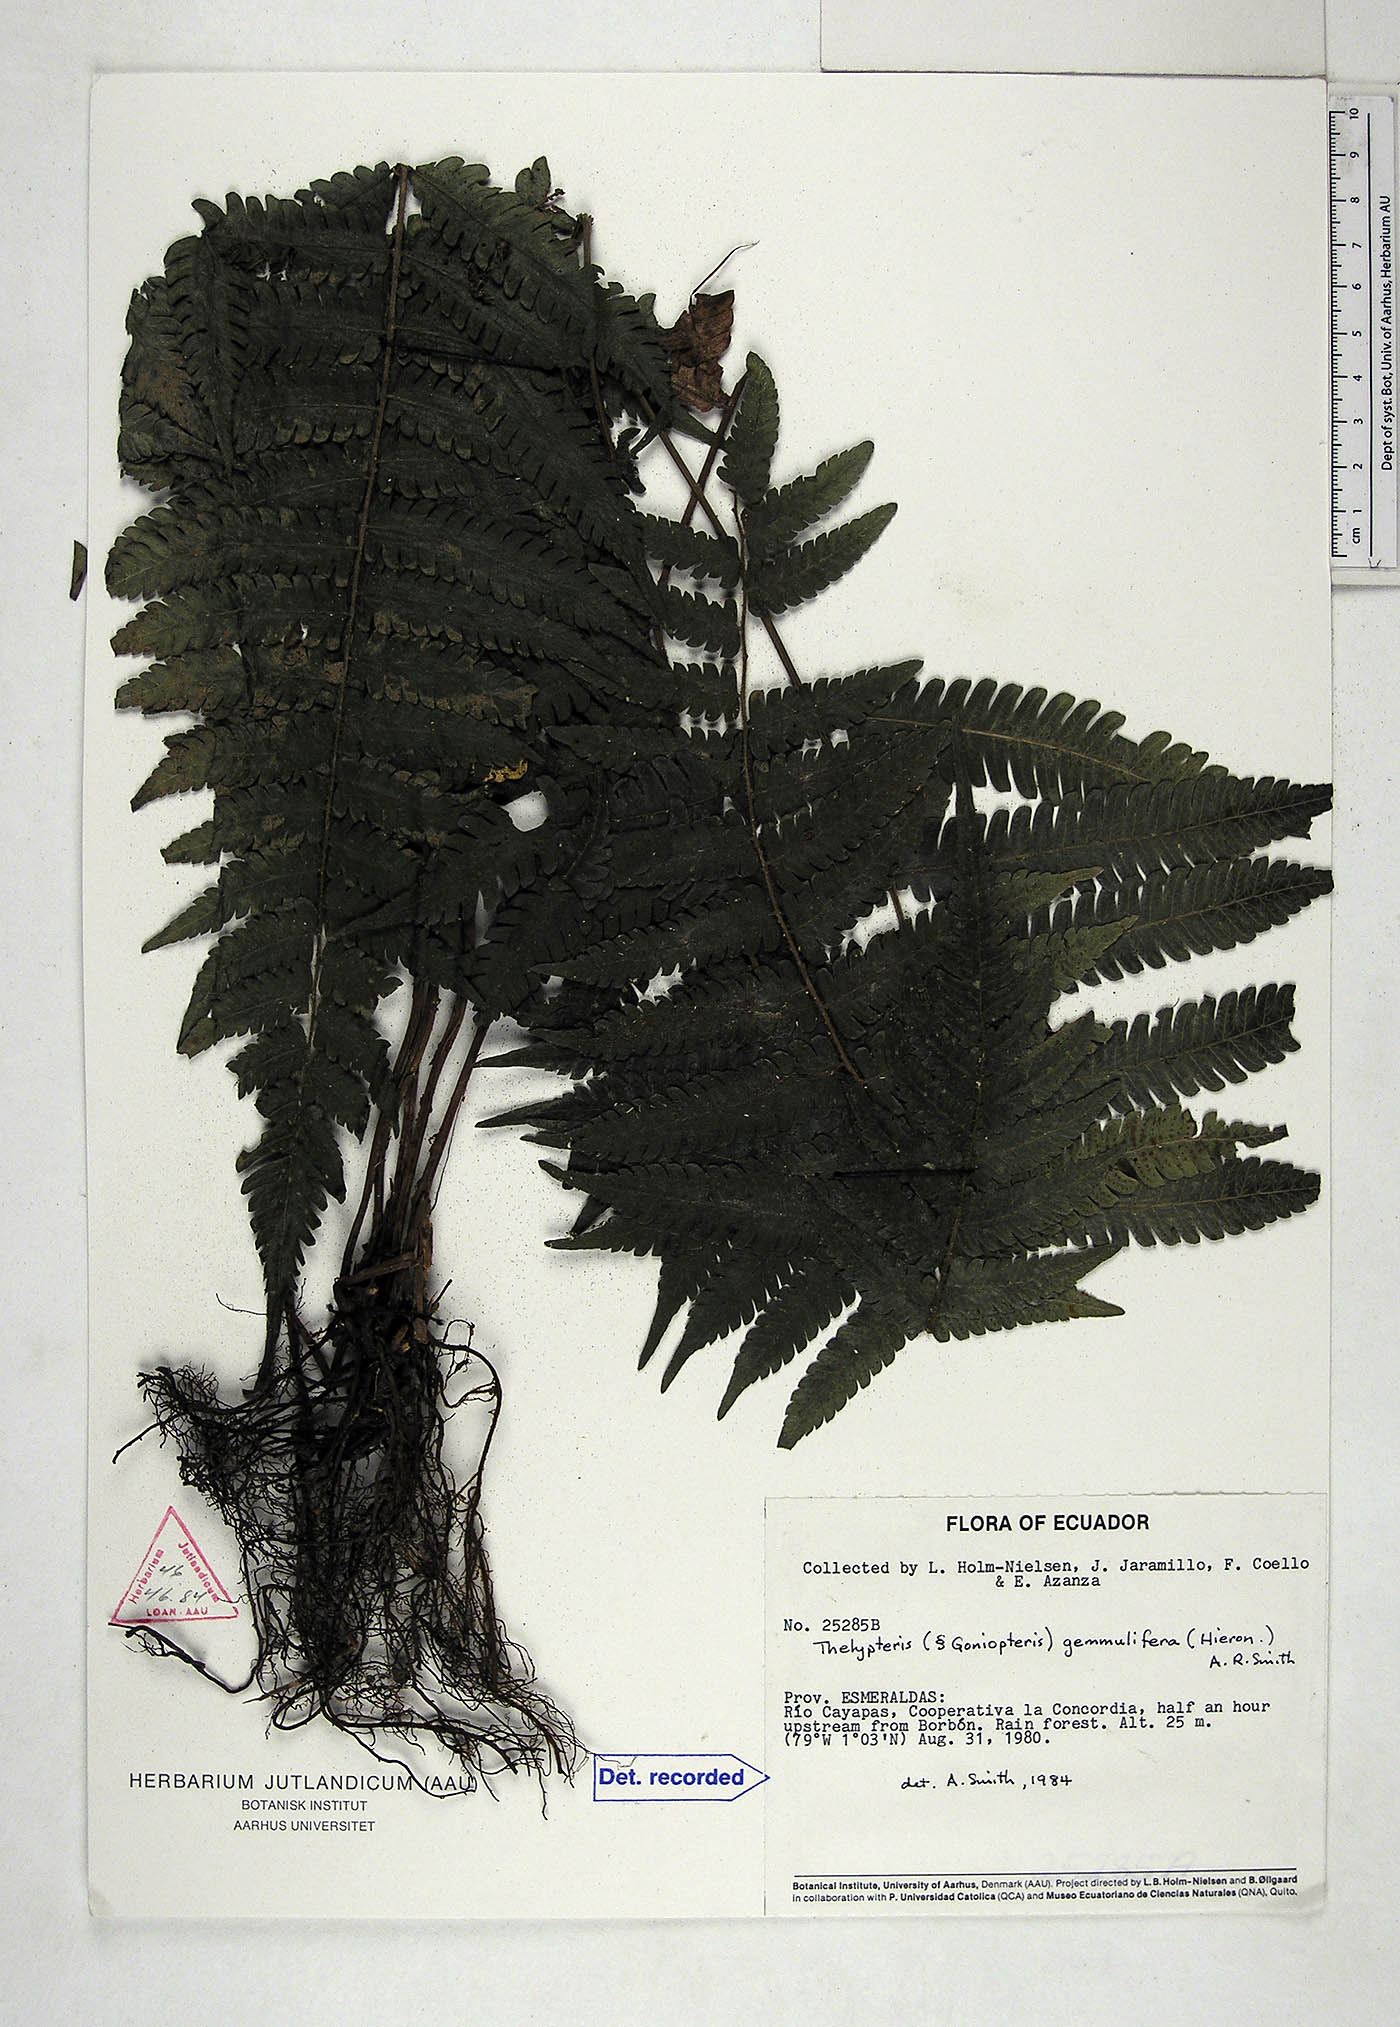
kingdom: Plantae
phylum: Tracheophyta
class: Polypodiopsida
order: Polypodiales
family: Thelypteridaceae
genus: Goniopteris
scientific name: Goniopteris gemmulifera
